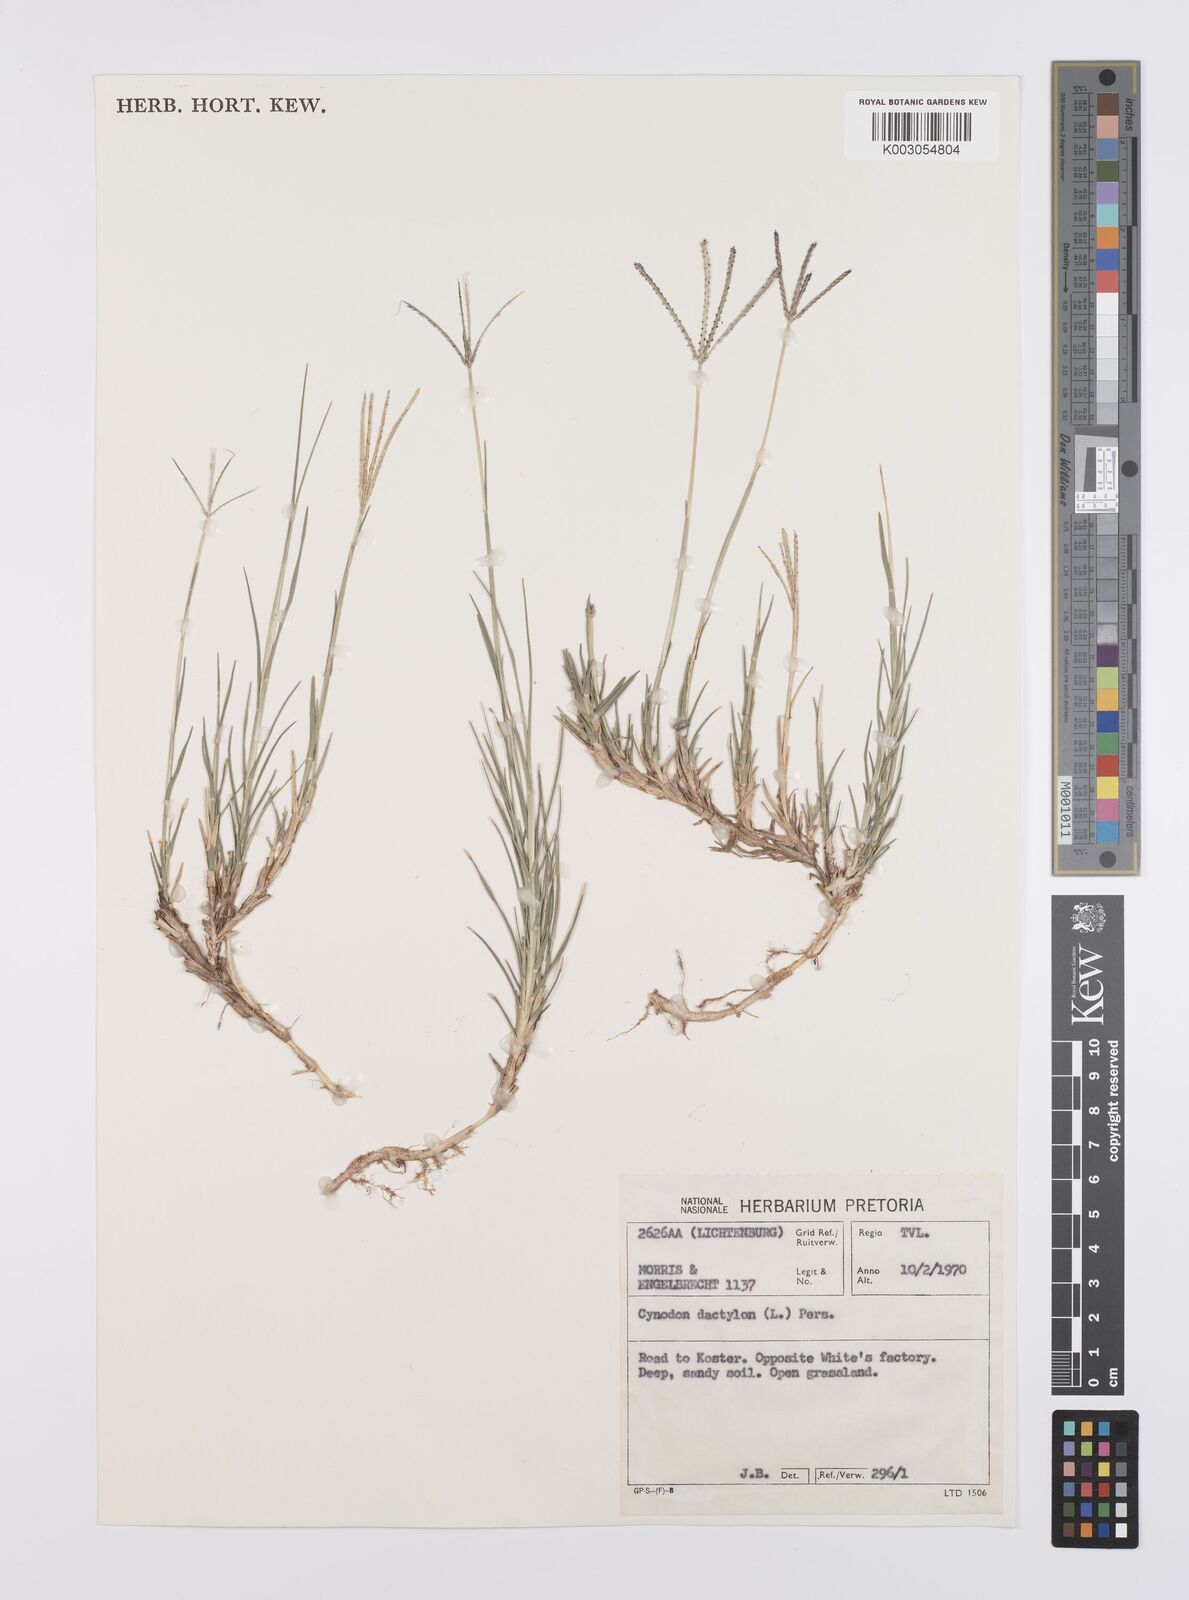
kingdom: Plantae
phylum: Tracheophyta
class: Liliopsida
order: Poales
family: Poaceae
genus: Cynodon
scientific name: Cynodon dactylon
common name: Bermuda grass
